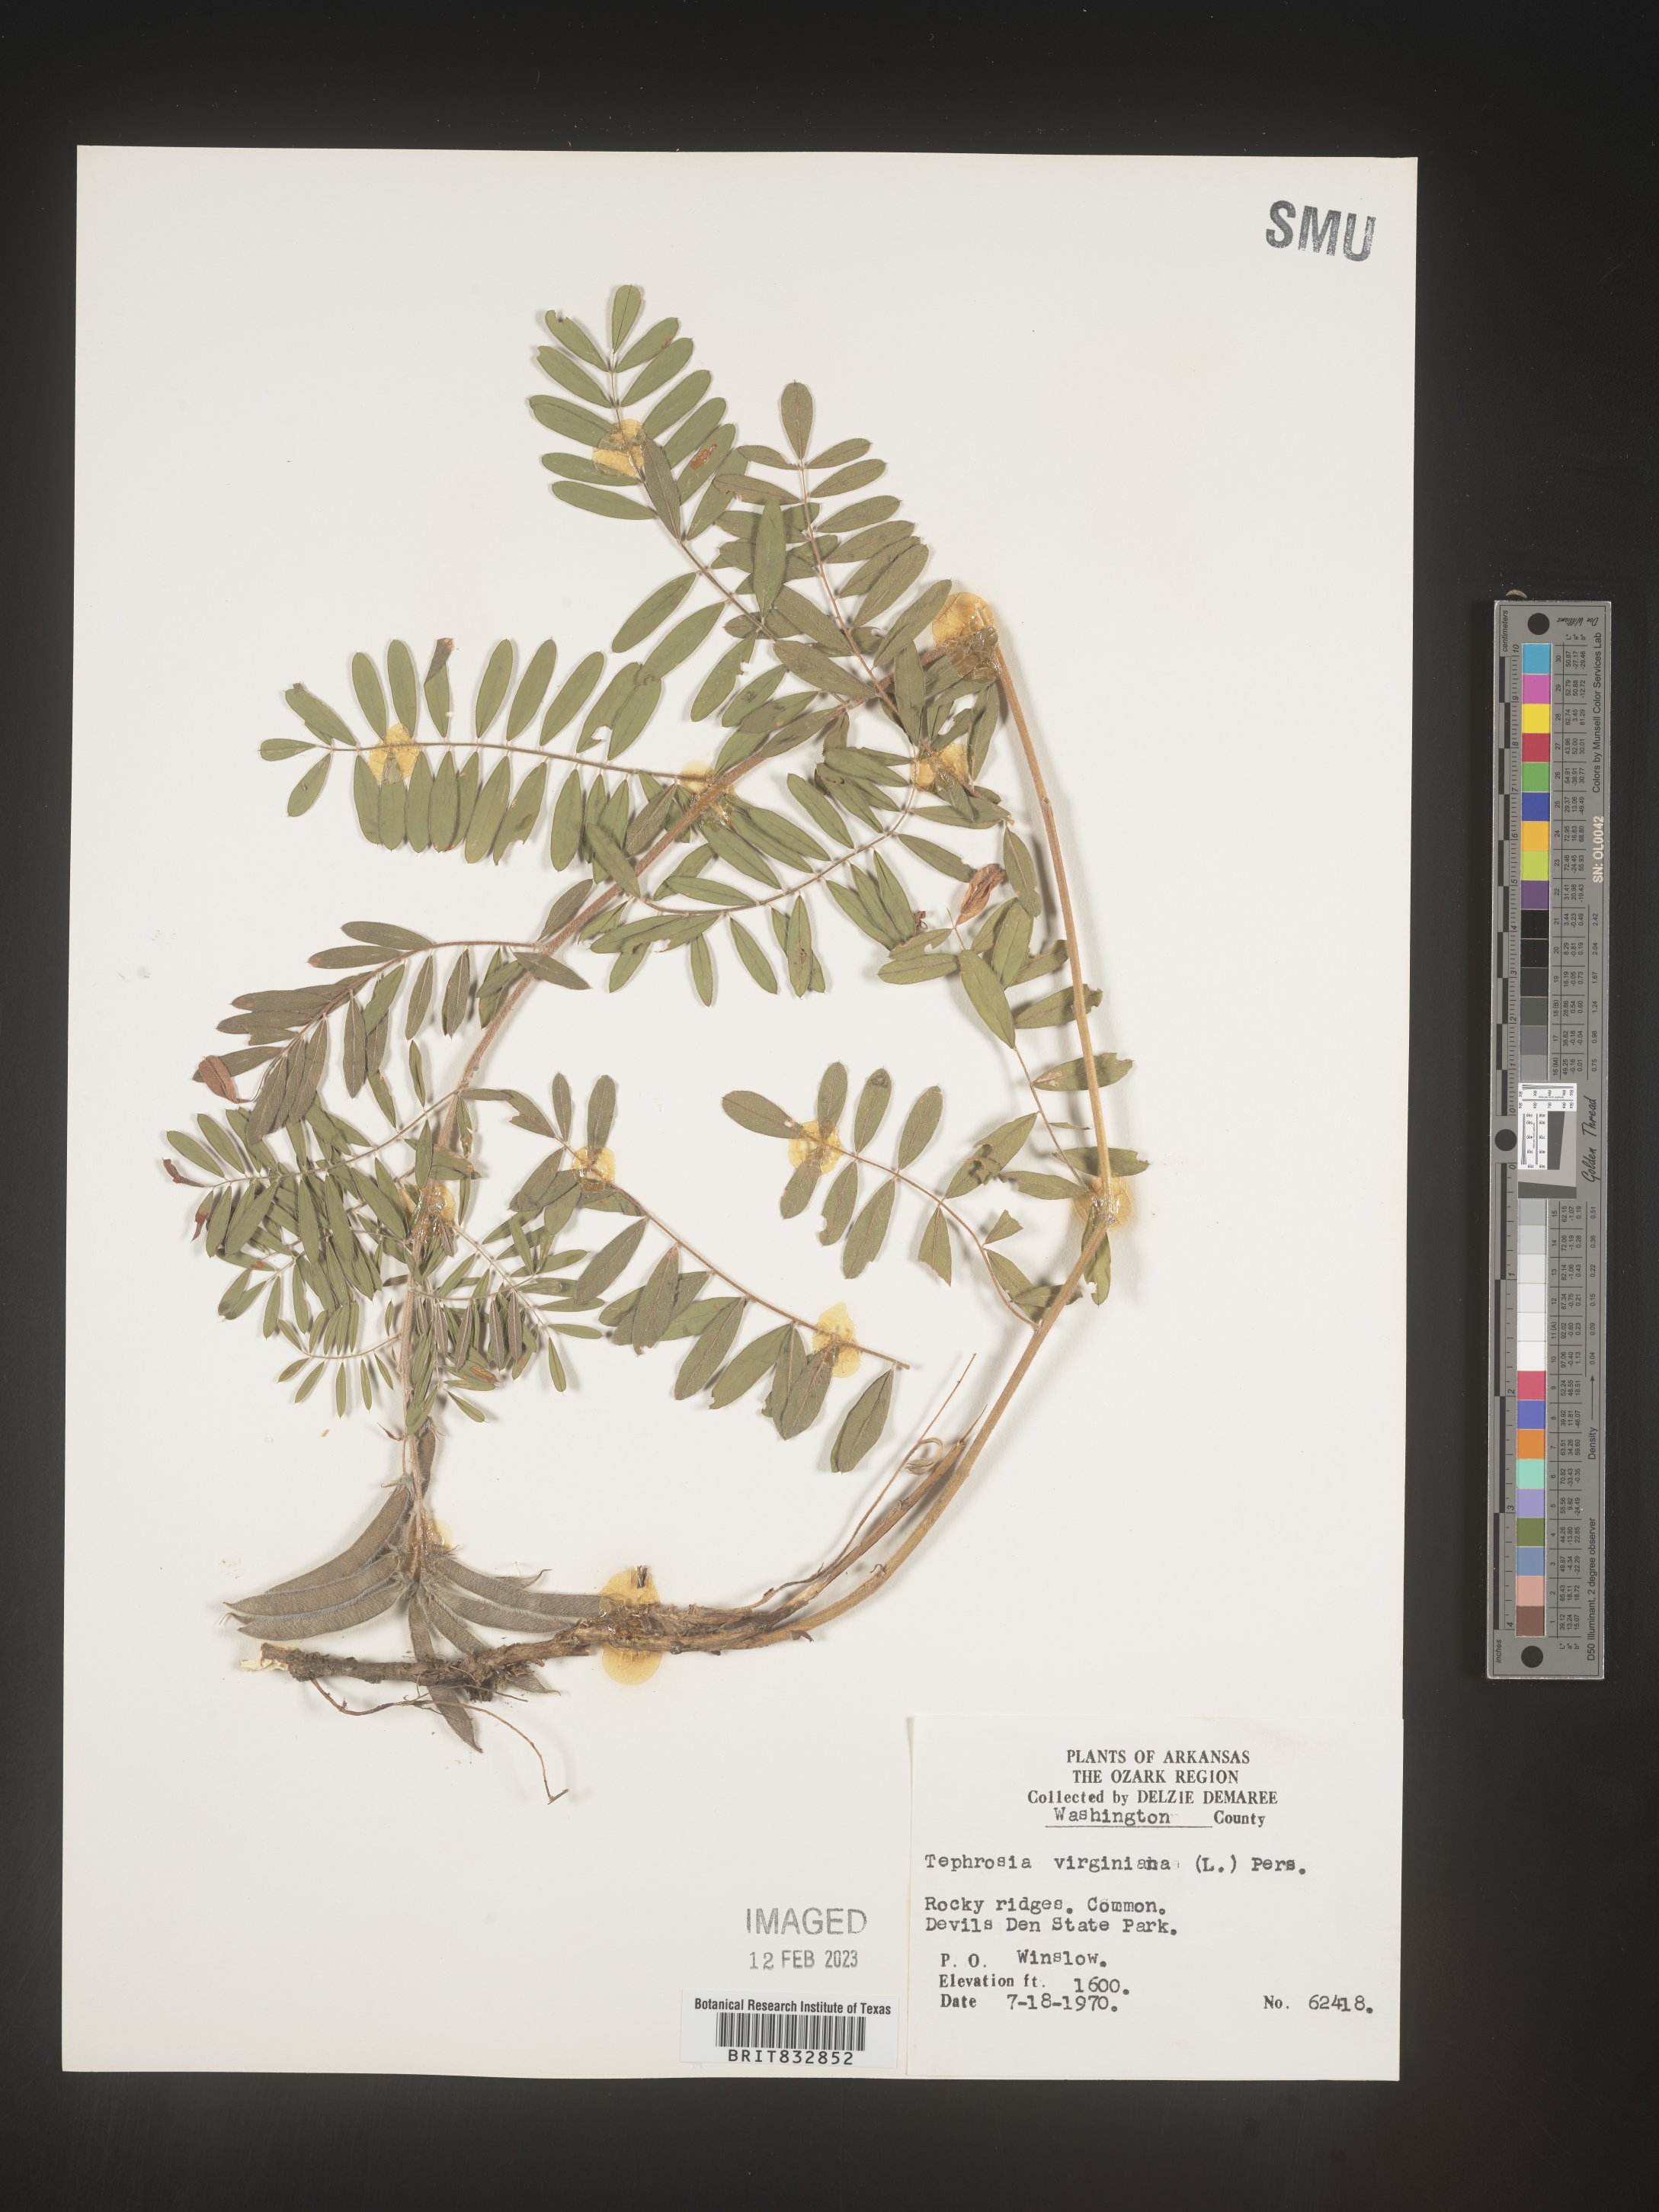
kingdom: Plantae
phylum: Tracheophyta
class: Magnoliopsida
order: Fabales
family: Fabaceae
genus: Tephrosia
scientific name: Tephrosia virginiana
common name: Rabbit-pea
